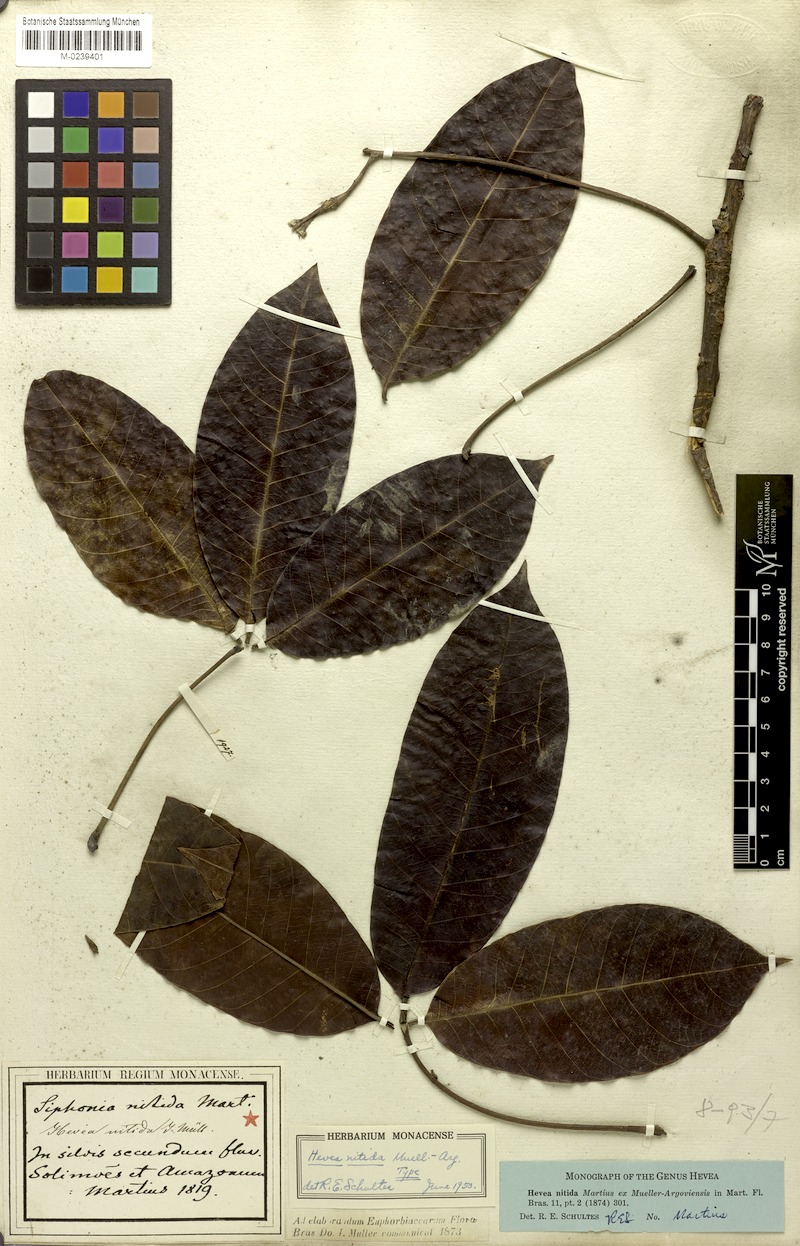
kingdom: Plantae
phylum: Tracheophyta
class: Magnoliopsida
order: Malpighiales
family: Euphorbiaceae
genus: Hevea
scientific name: Hevea nitida
